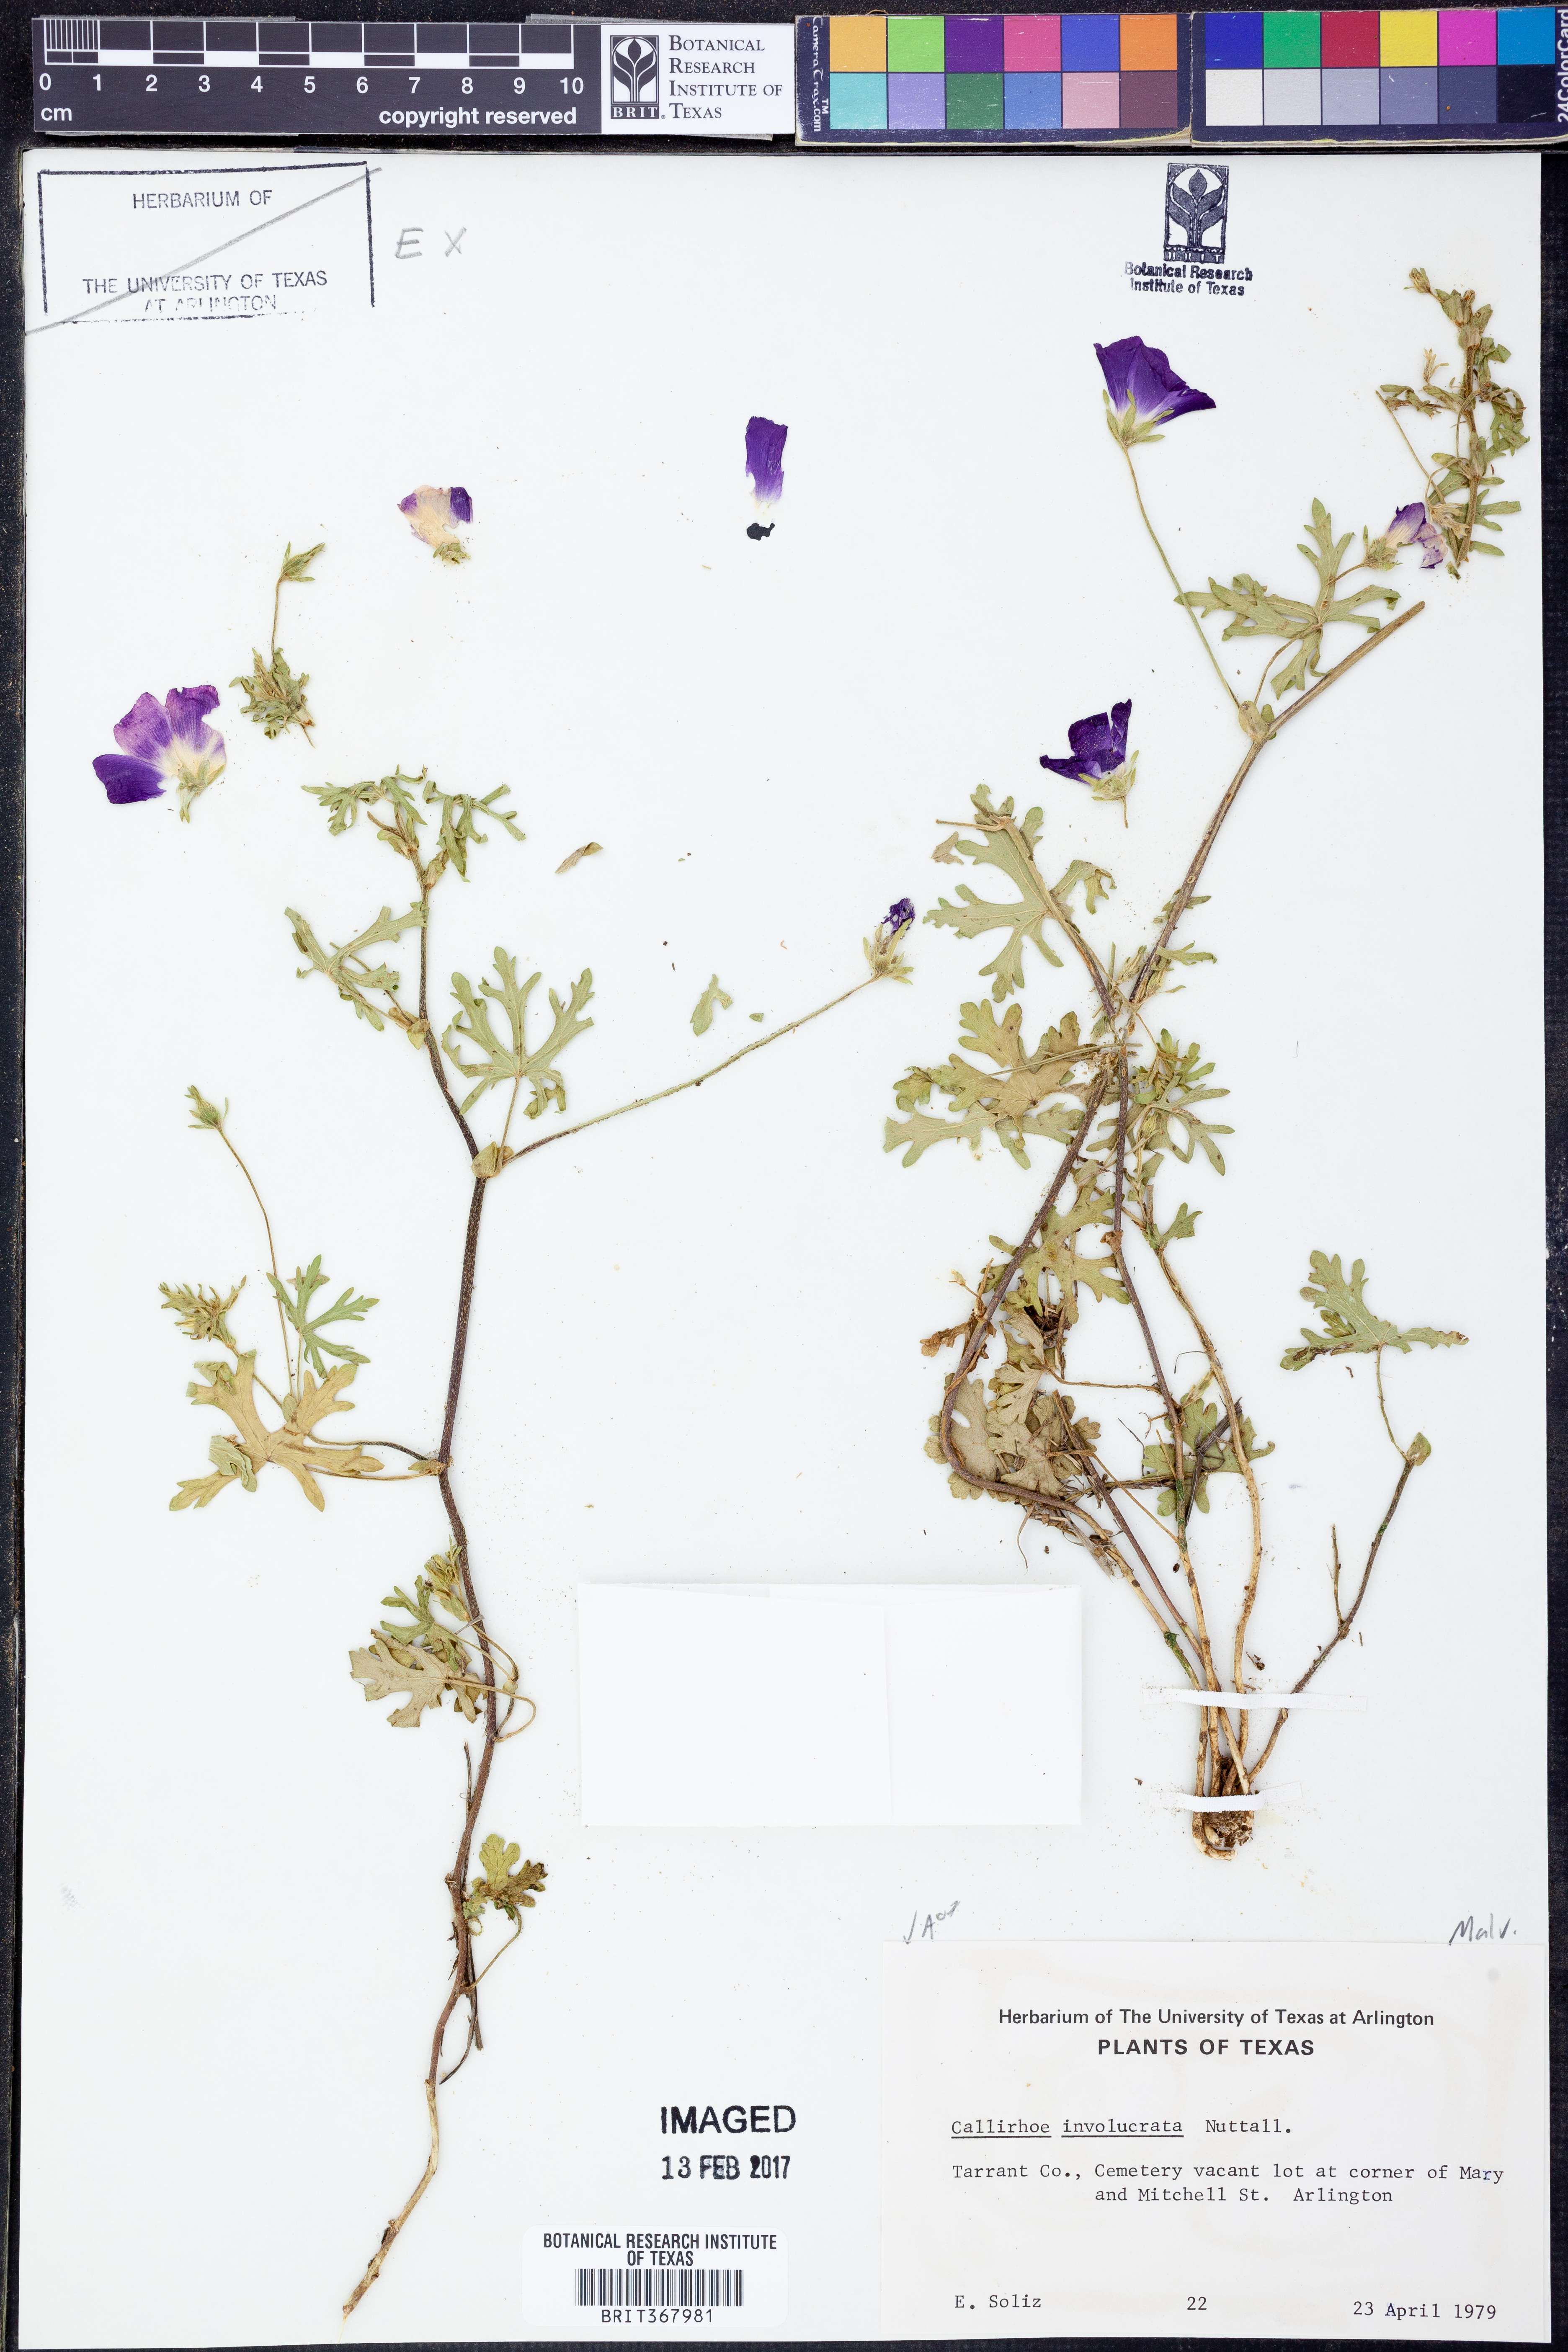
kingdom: Plantae
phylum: Tracheophyta
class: Magnoliopsida
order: Malvales
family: Malvaceae
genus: Callirhoe
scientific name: Callirhoe involucrata
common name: Purple poppy-mallow
